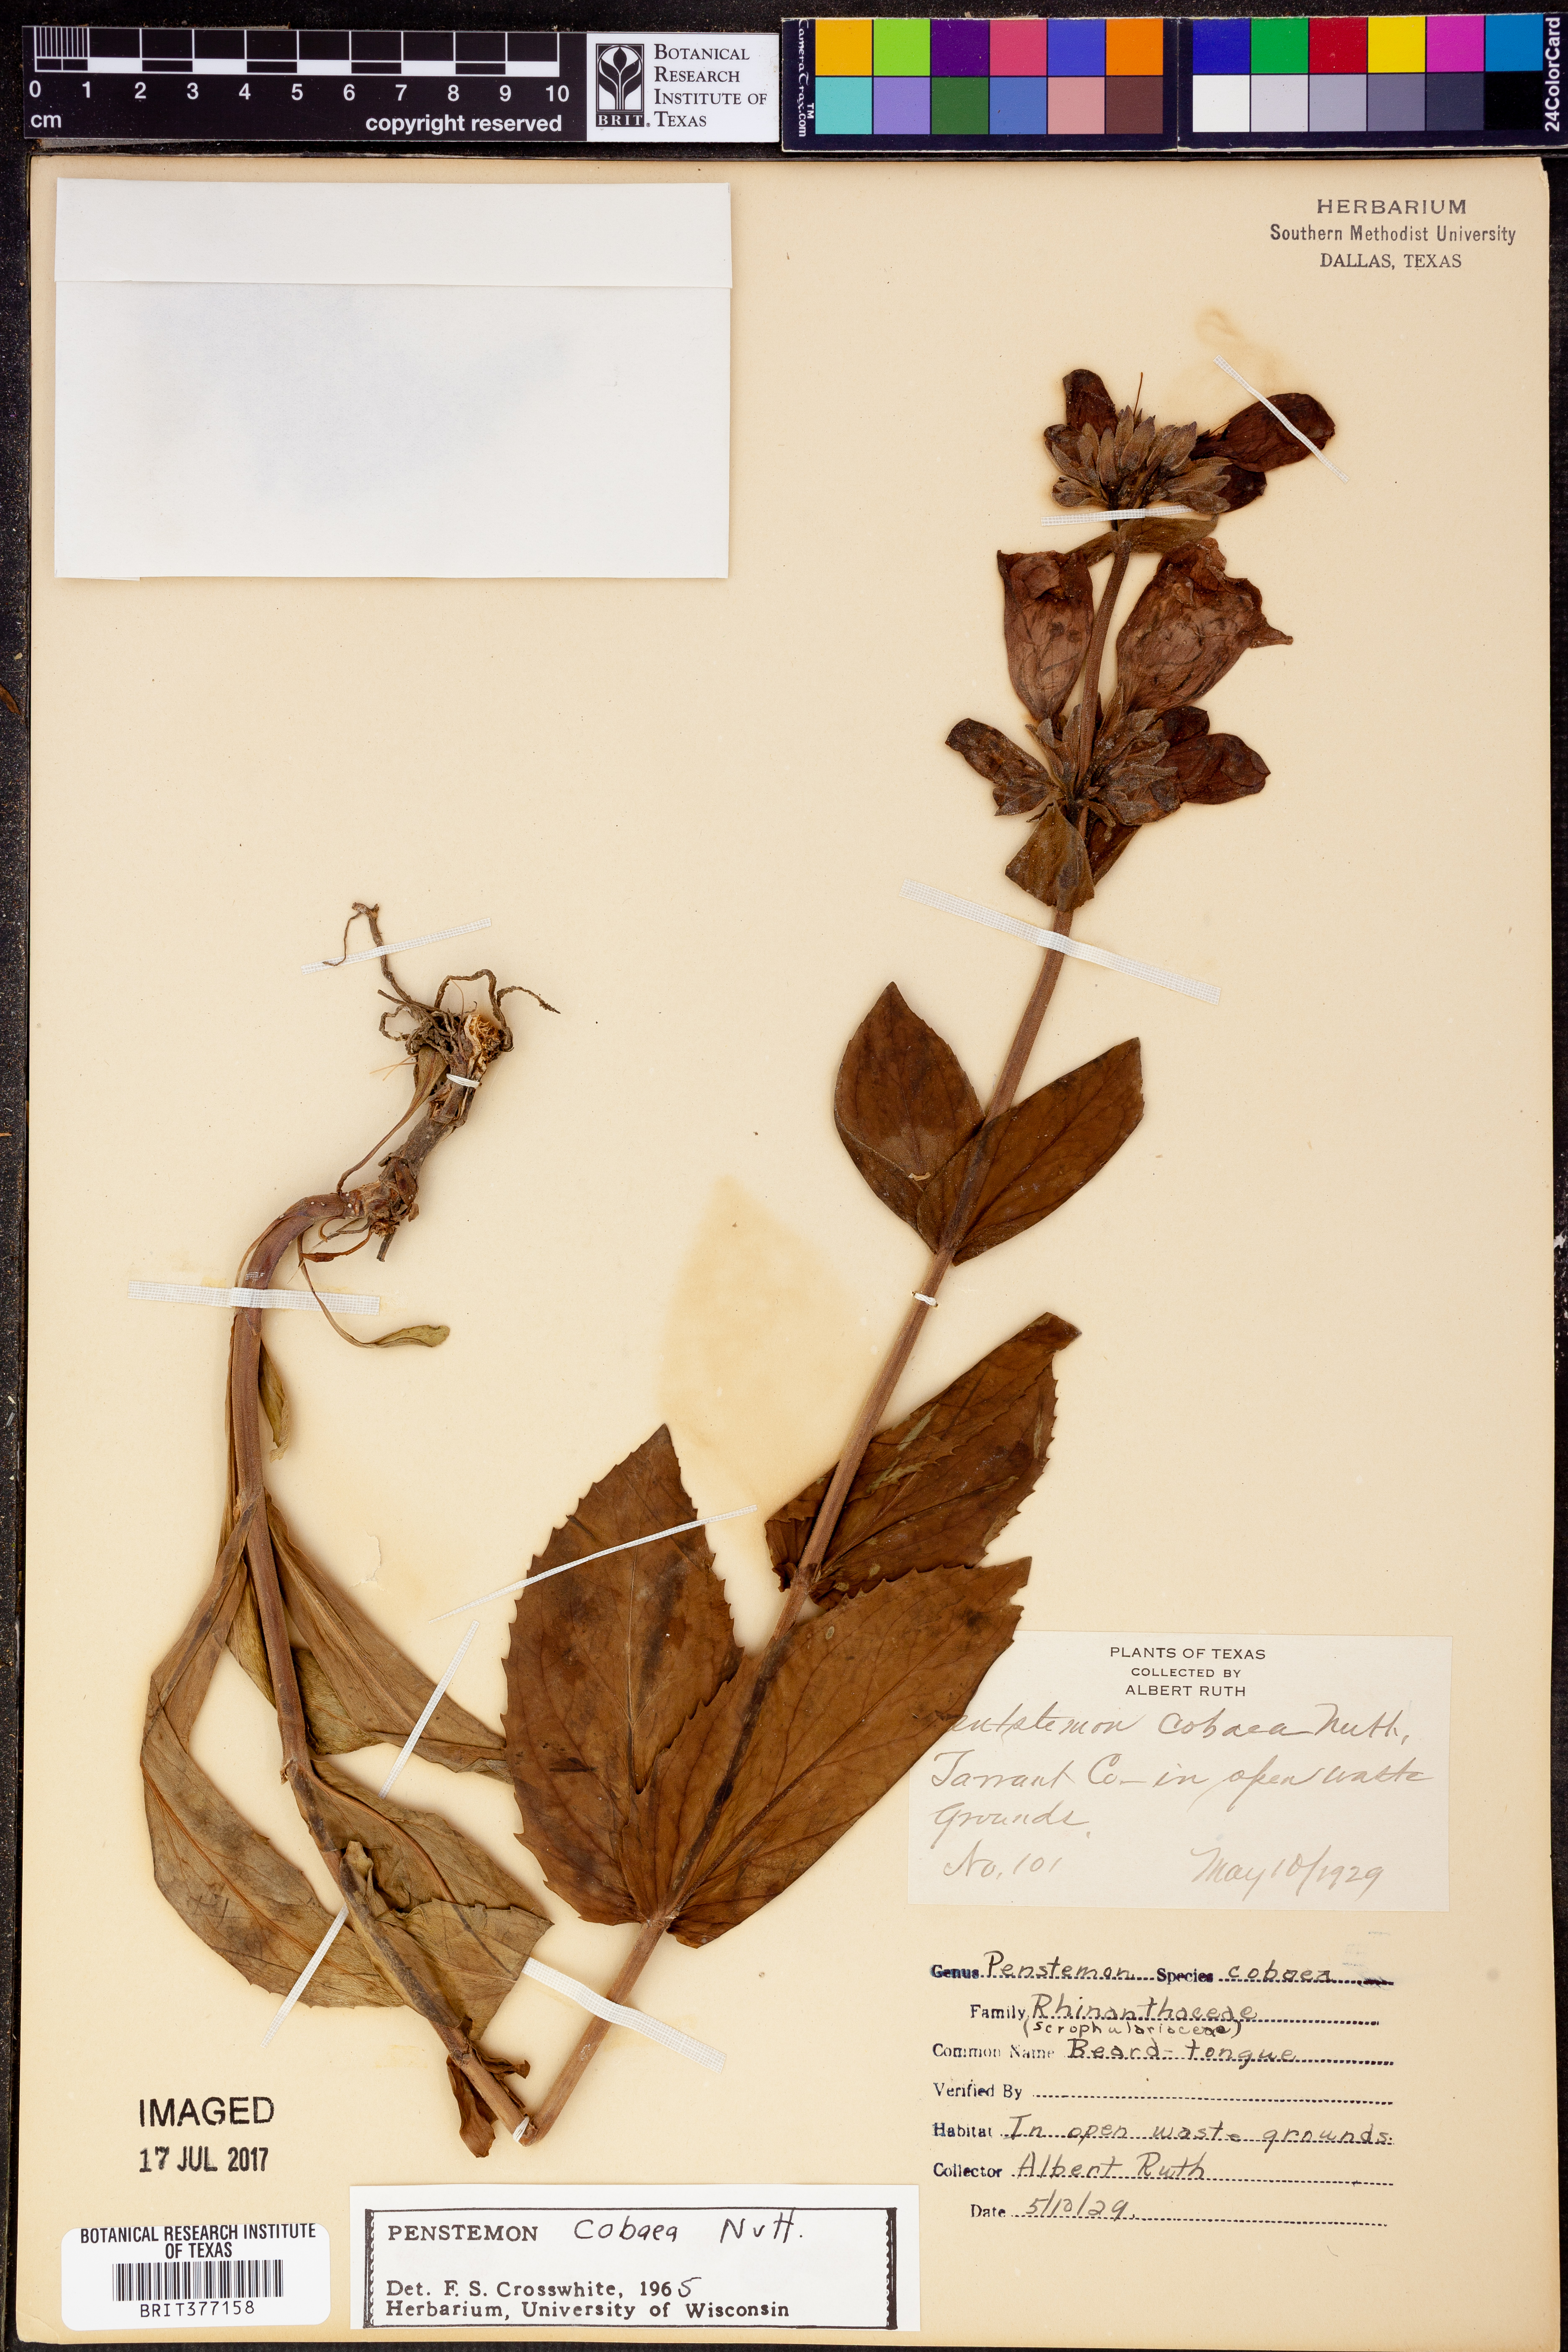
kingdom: Plantae
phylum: Tracheophyta
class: Magnoliopsida
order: Lamiales
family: Plantaginaceae
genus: Penstemon
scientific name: Penstemon cobaea
